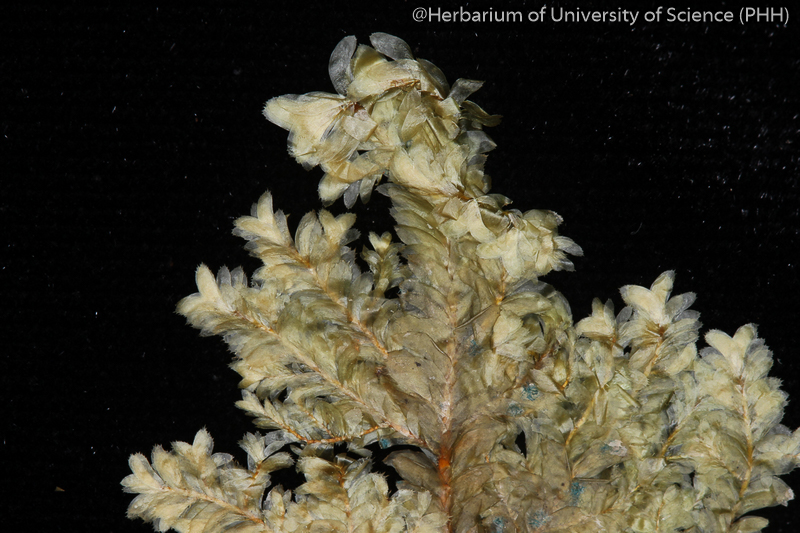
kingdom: Plantae
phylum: Bryophyta
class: Bryopsida
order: Hypnales
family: Neckeraceae
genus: Homaliodendron
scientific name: Homaliodendron flabellatum
